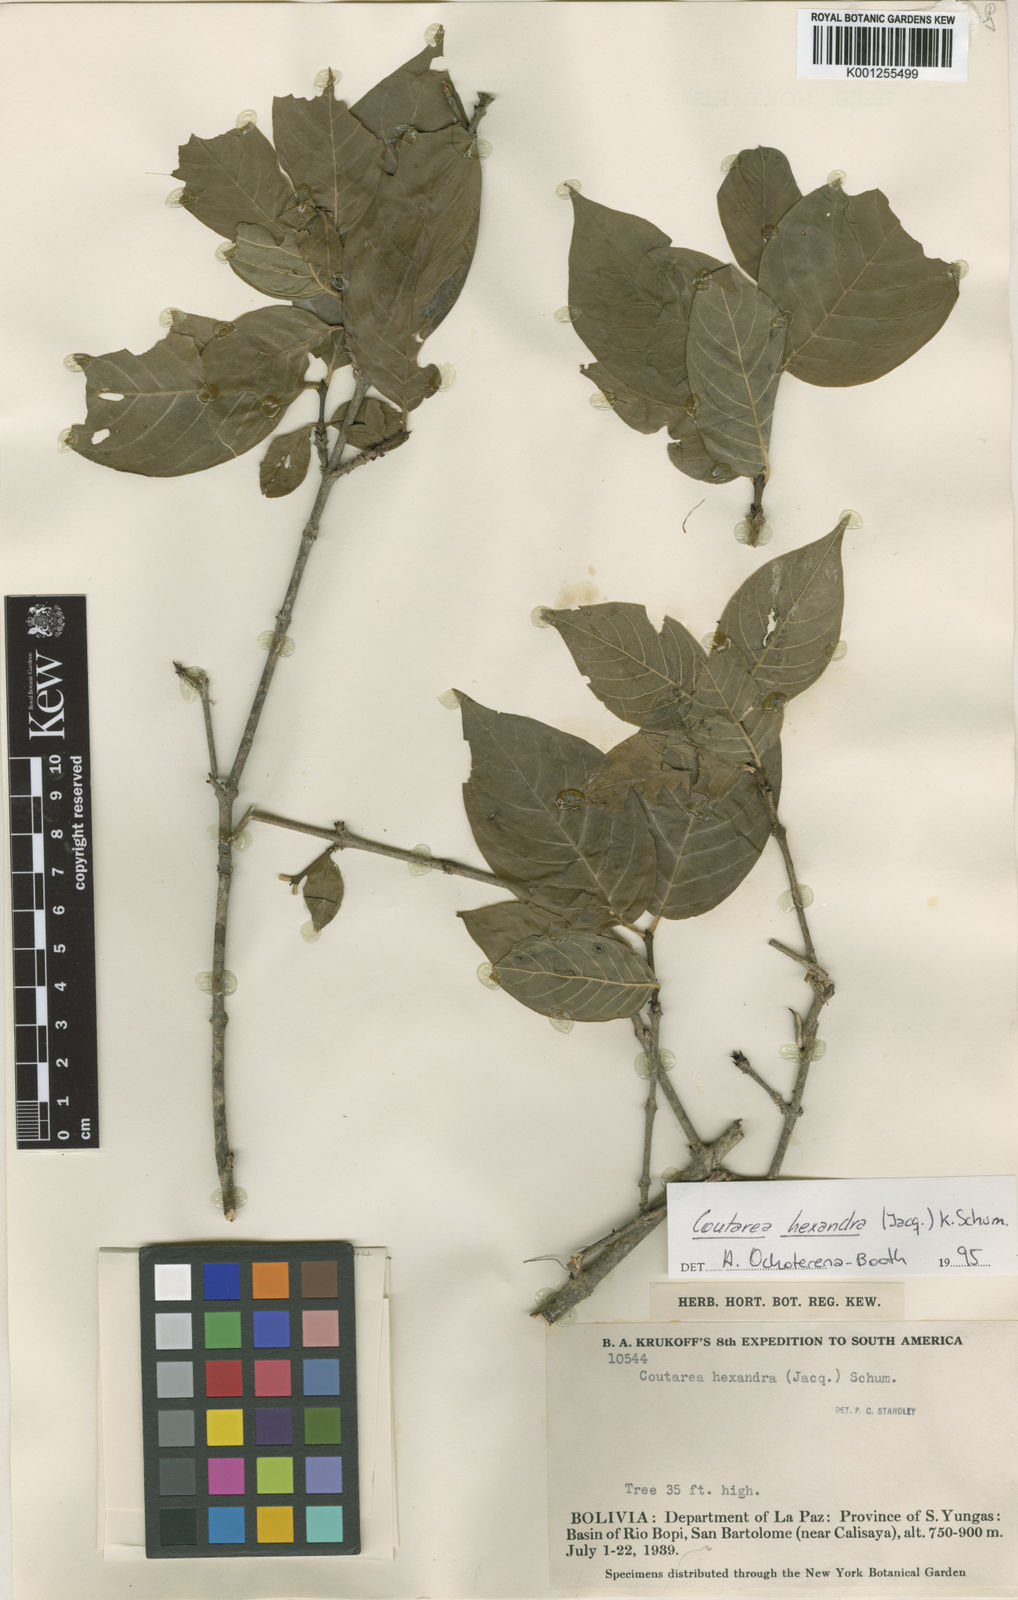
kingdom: Plantae
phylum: Tracheophyta
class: Magnoliopsida
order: Gentianales
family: Rubiaceae
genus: Coutarea
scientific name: Coutarea hexandra
